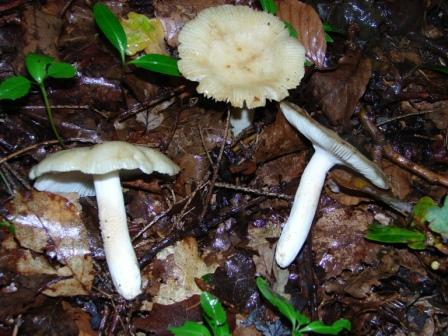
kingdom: Fungi
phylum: Basidiomycota
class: Agaricomycetes
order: Russulales
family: Russulaceae
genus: Russula
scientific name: Russula farinipes
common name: gul kam-skørhat
